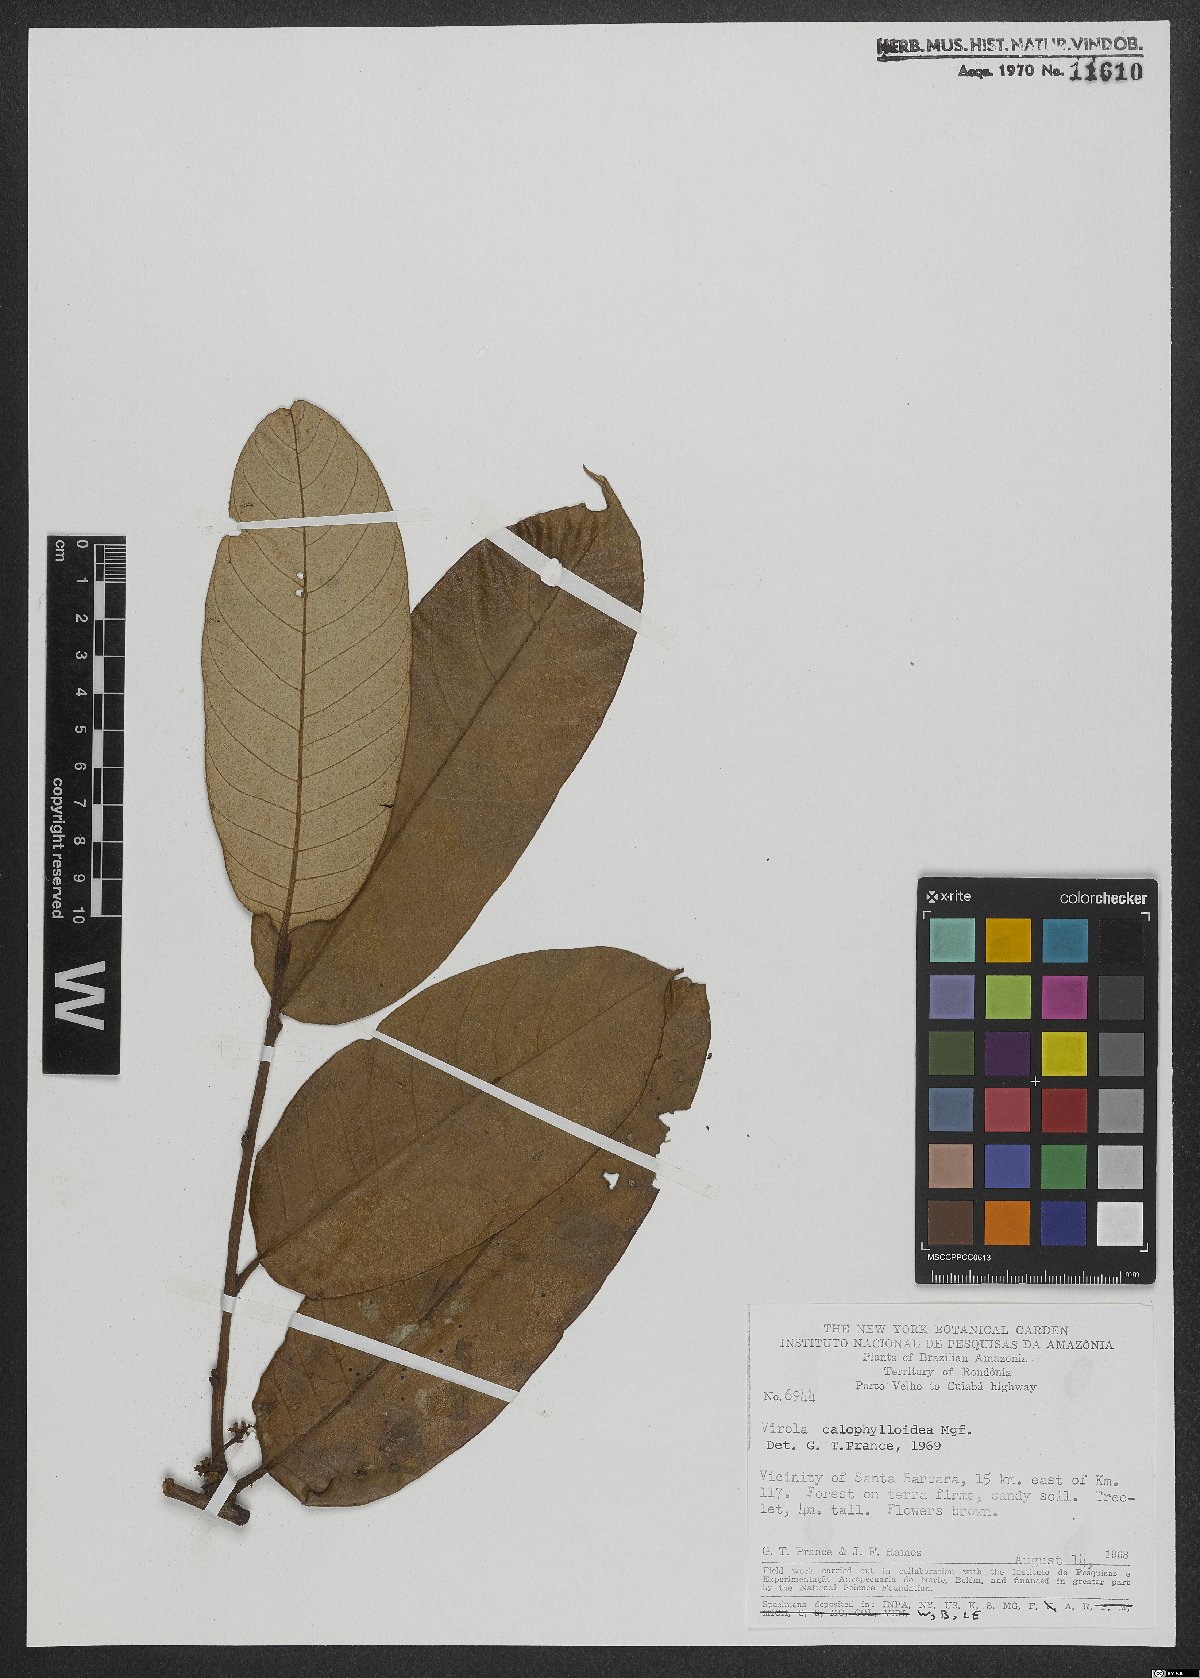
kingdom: Plantae
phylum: Tracheophyta
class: Magnoliopsida
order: Magnoliales
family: Myristicaceae
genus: Virola
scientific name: Virola calophylloidea
